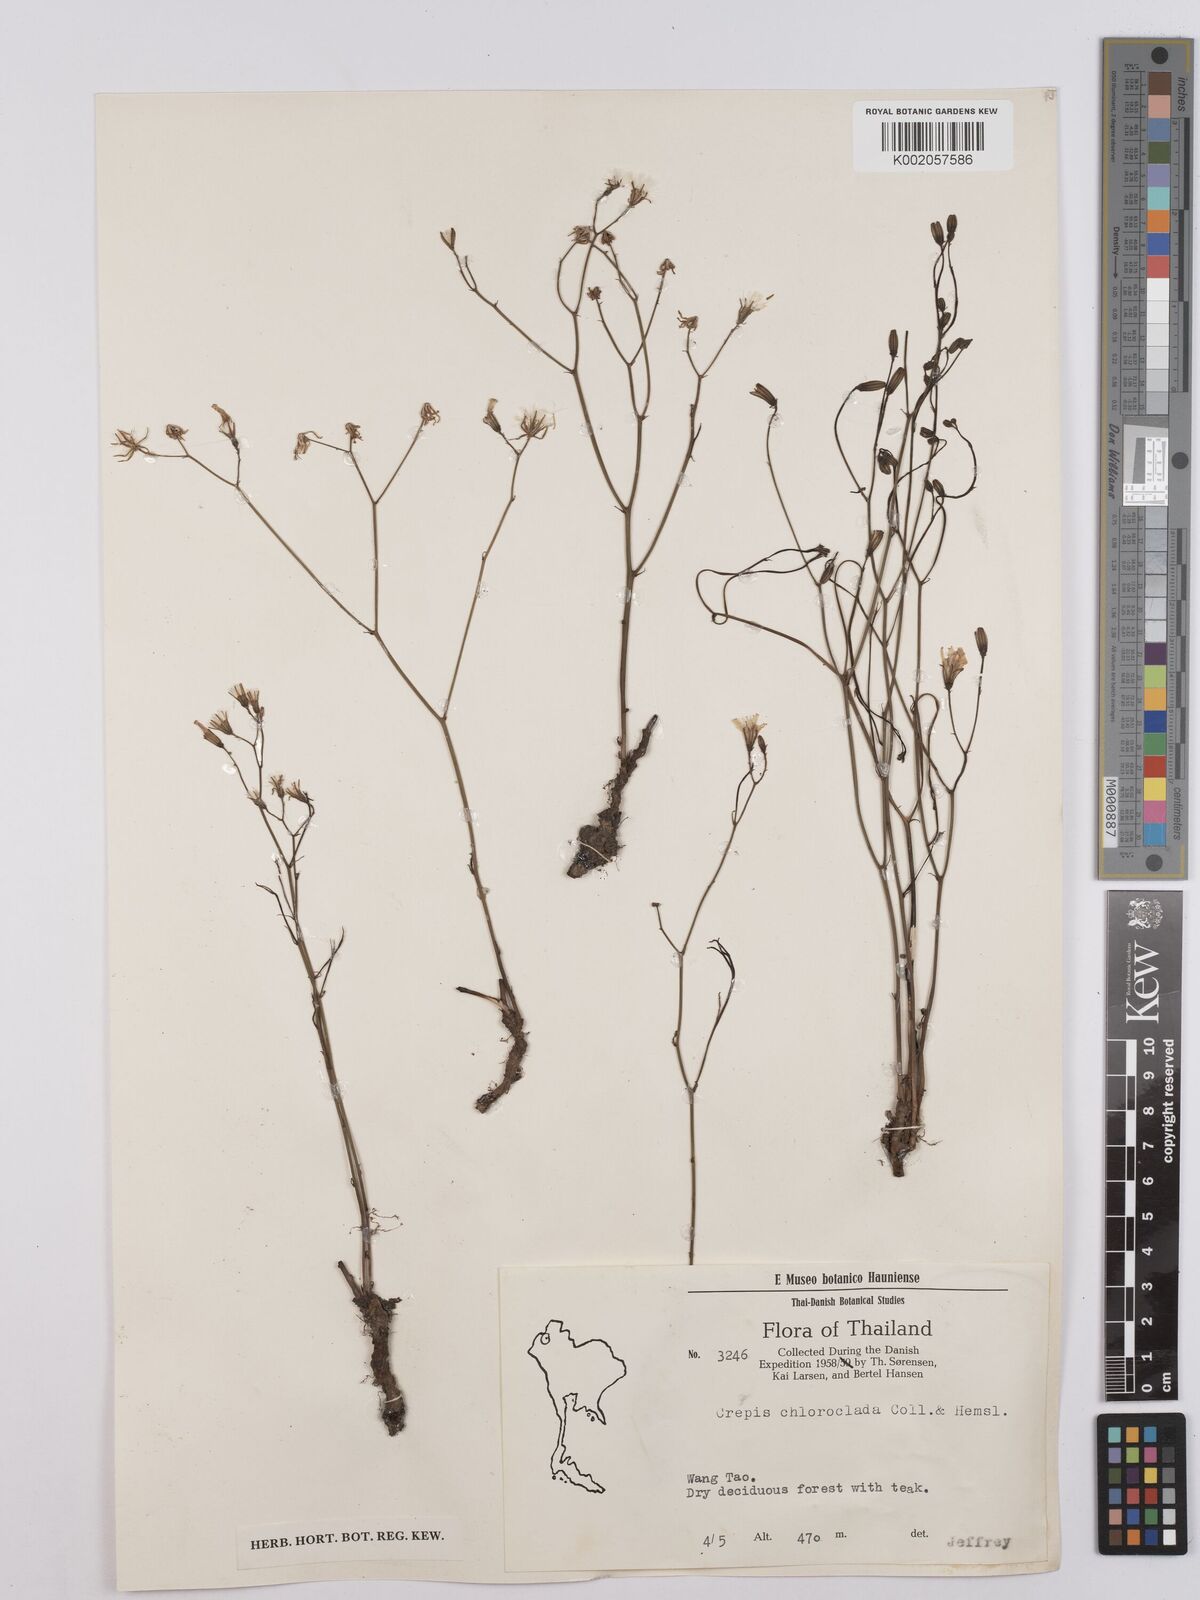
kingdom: Plantae
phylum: Tracheophyta
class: Magnoliopsida
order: Asterales
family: Asteraceae
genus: Crepis
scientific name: Crepis lignea
